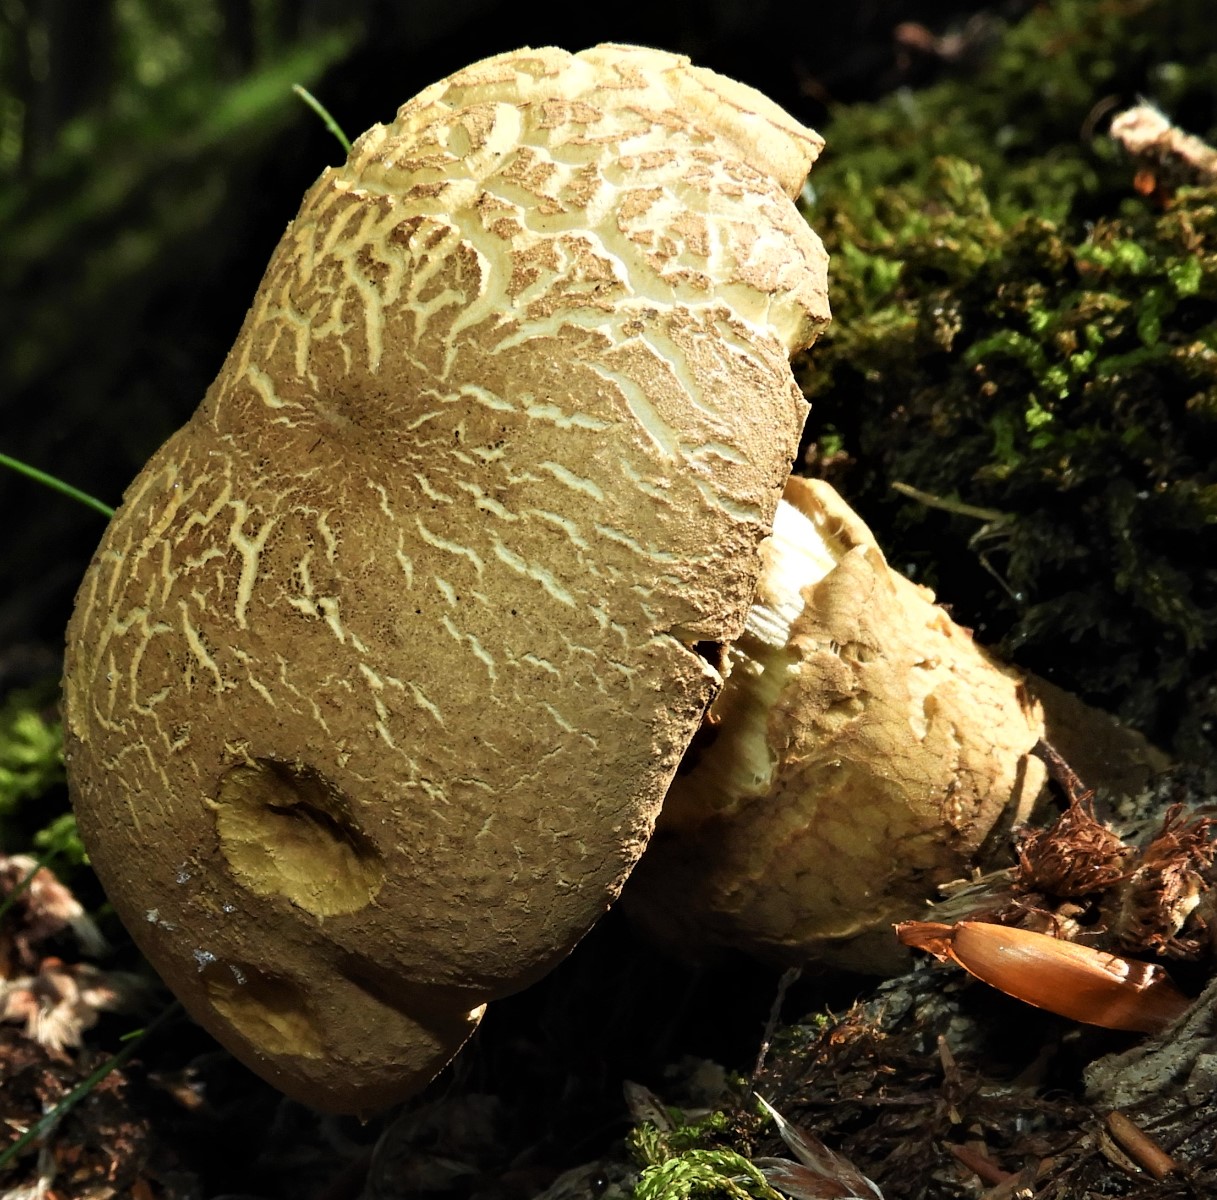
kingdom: Fungi
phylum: Basidiomycota
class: Agaricomycetes
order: Boletales
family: Boletaceae
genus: Caloboletus
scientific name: Caloboletus radicans
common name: rod-rørhat
